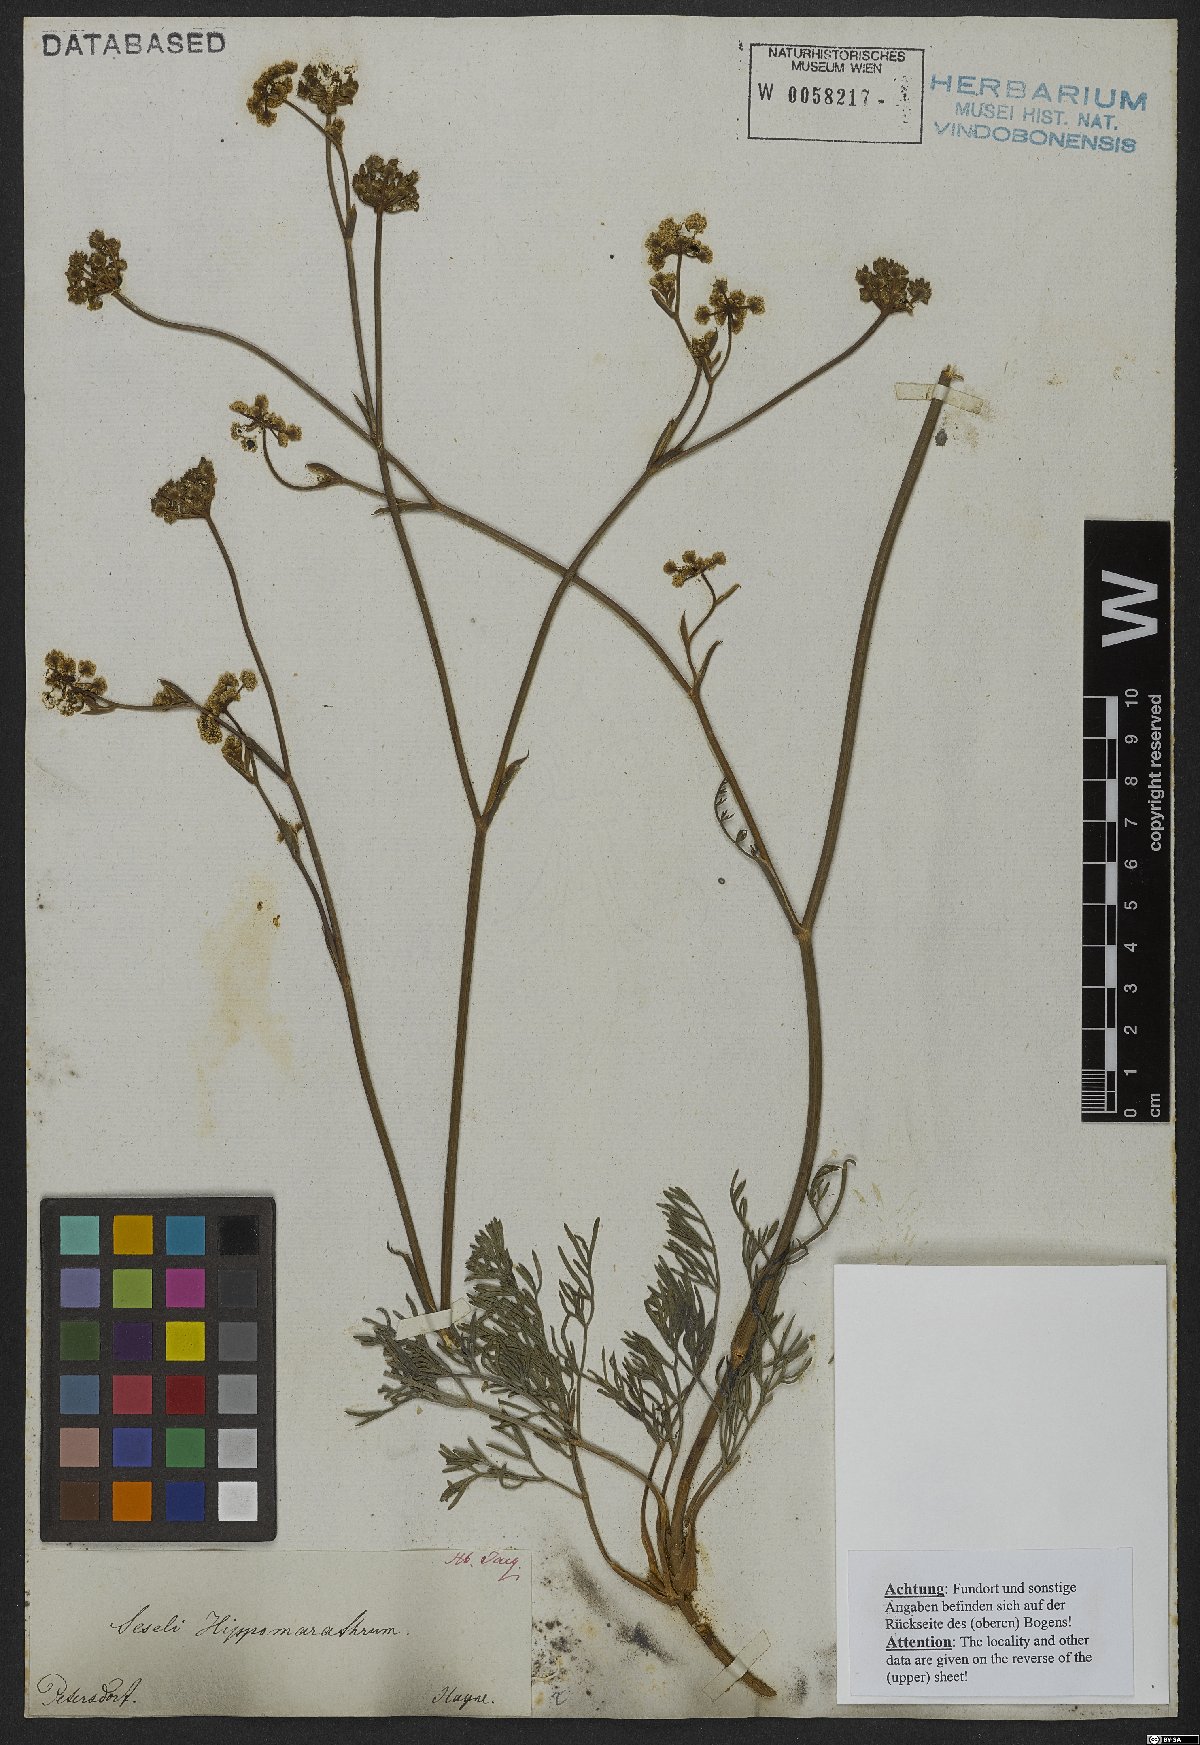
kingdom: Plantae
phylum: Tracheophyta
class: Magnoliopsida
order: Apiales
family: Apiaceae
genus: Hippomarathrum
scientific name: Hippomarathrum vulgare
